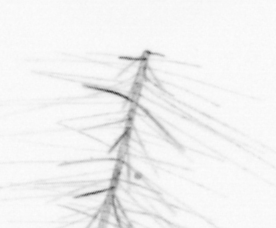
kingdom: Chromista
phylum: Ochrophyta
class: Bacillariophyceae
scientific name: Bacillariophyceae
